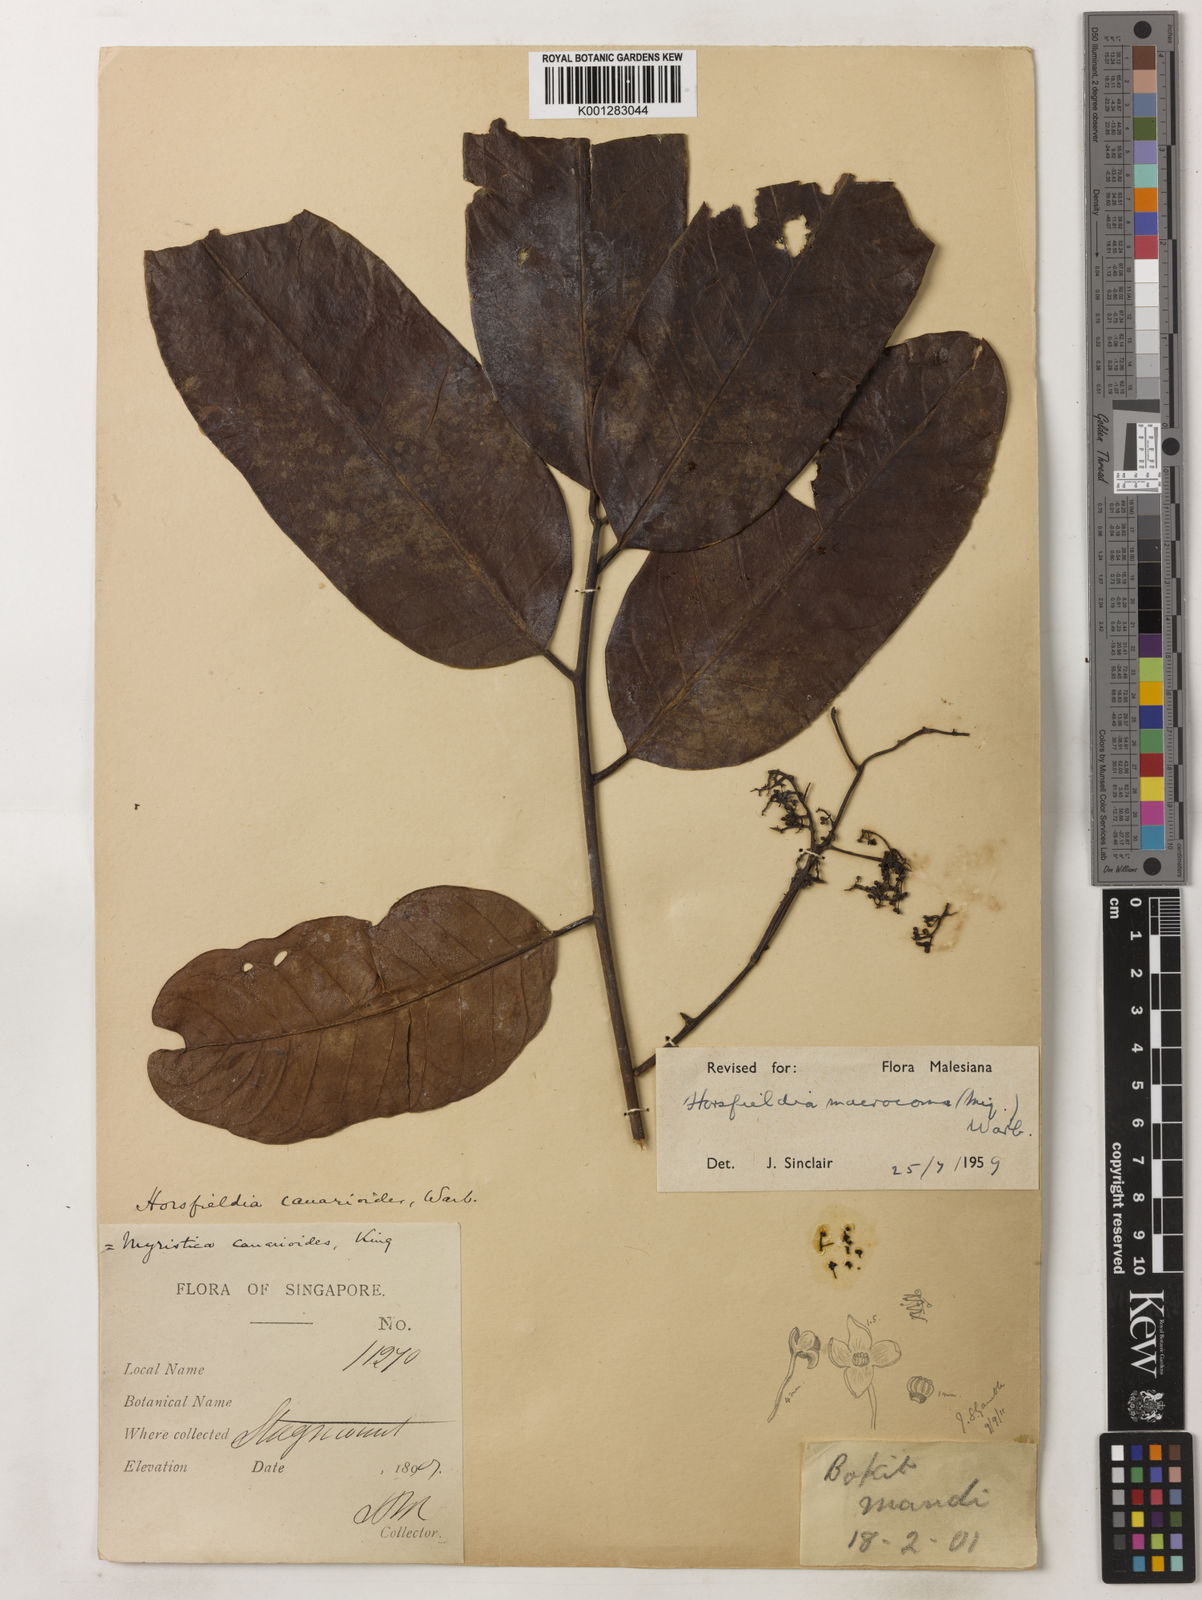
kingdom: Plantae
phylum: Tracheophyta
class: Magnoliopsida
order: Magnoliales
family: Myristicaceae
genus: Endocomia
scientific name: Endocomia canarioides
